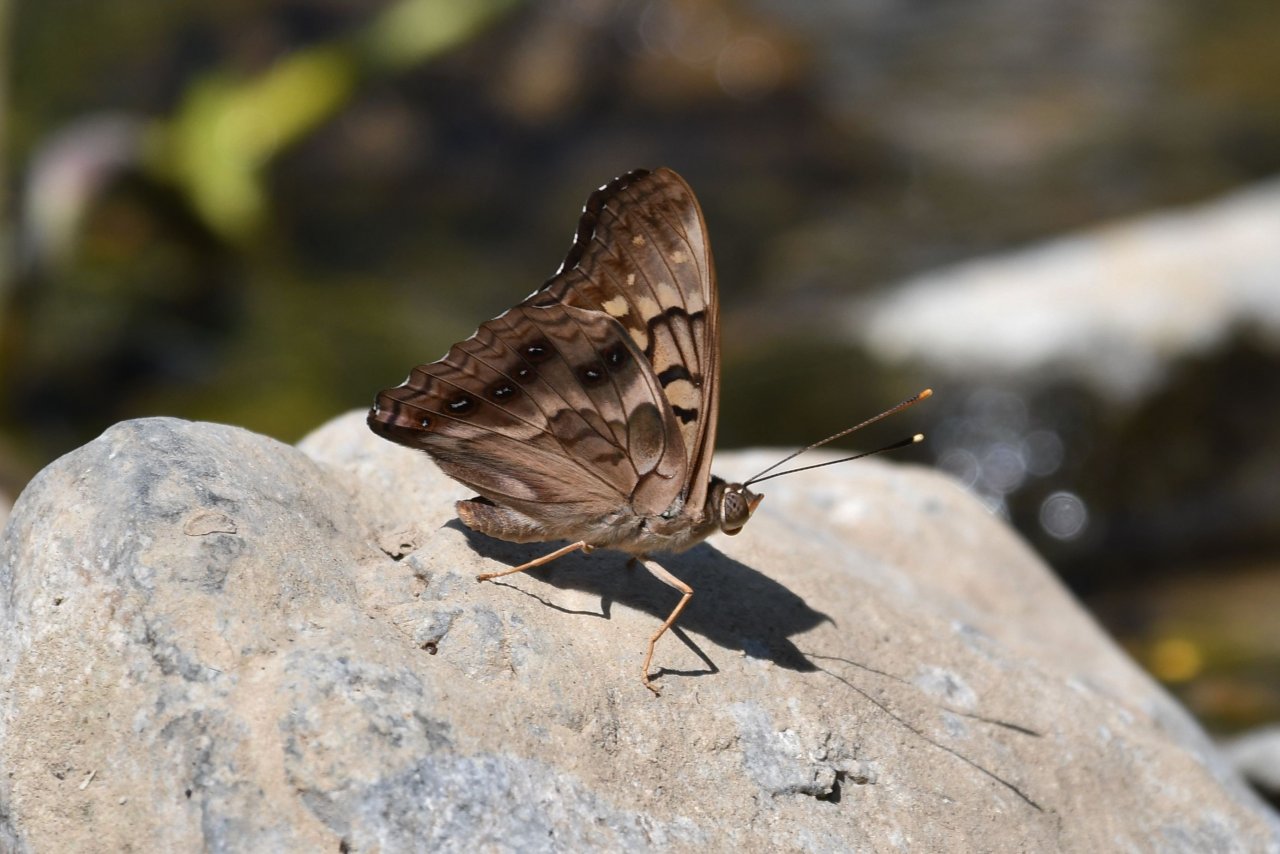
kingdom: Animalia
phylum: Arthropoda
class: Insecta
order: Lepidoptera
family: Nymphalidae
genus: Asterocampa
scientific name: Asterocampa clyton
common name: Tawny Emperor
